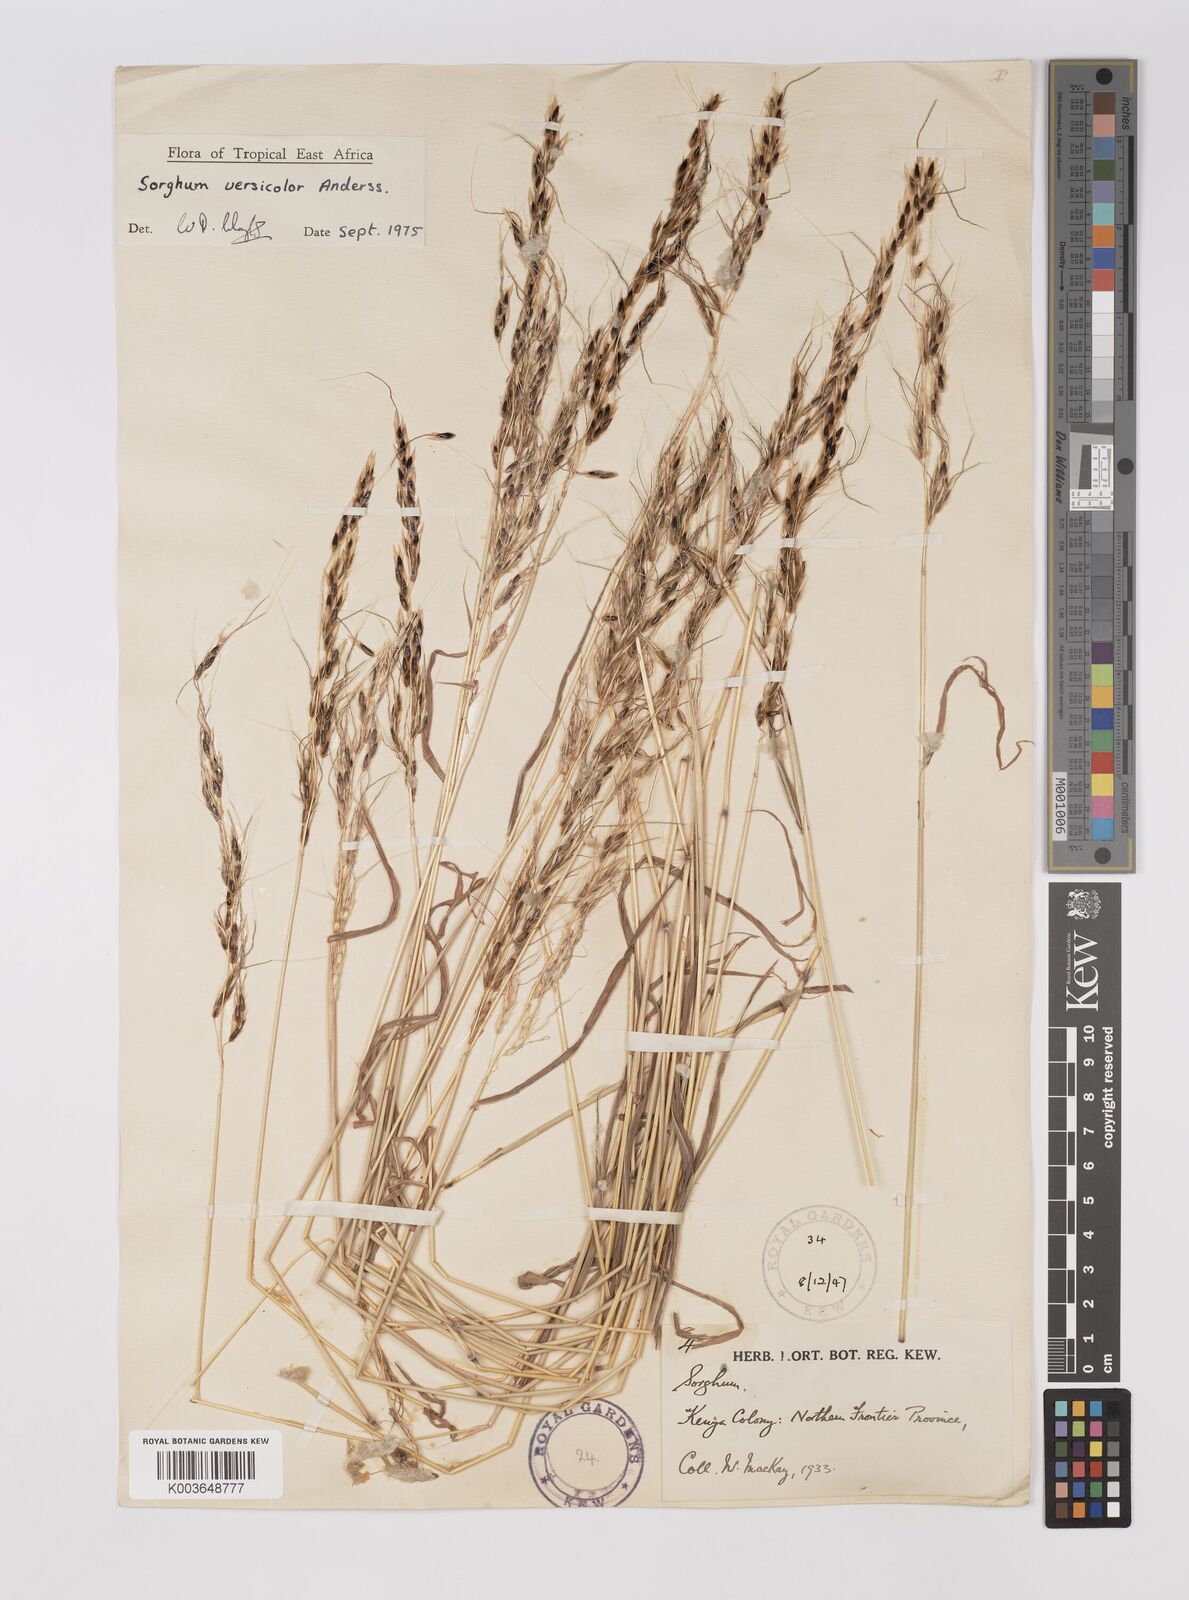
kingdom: Plantae
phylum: Tracheophyta
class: Liliopsida
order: Poales
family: Poaceae
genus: Sarga
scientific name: Sarga versicolor
